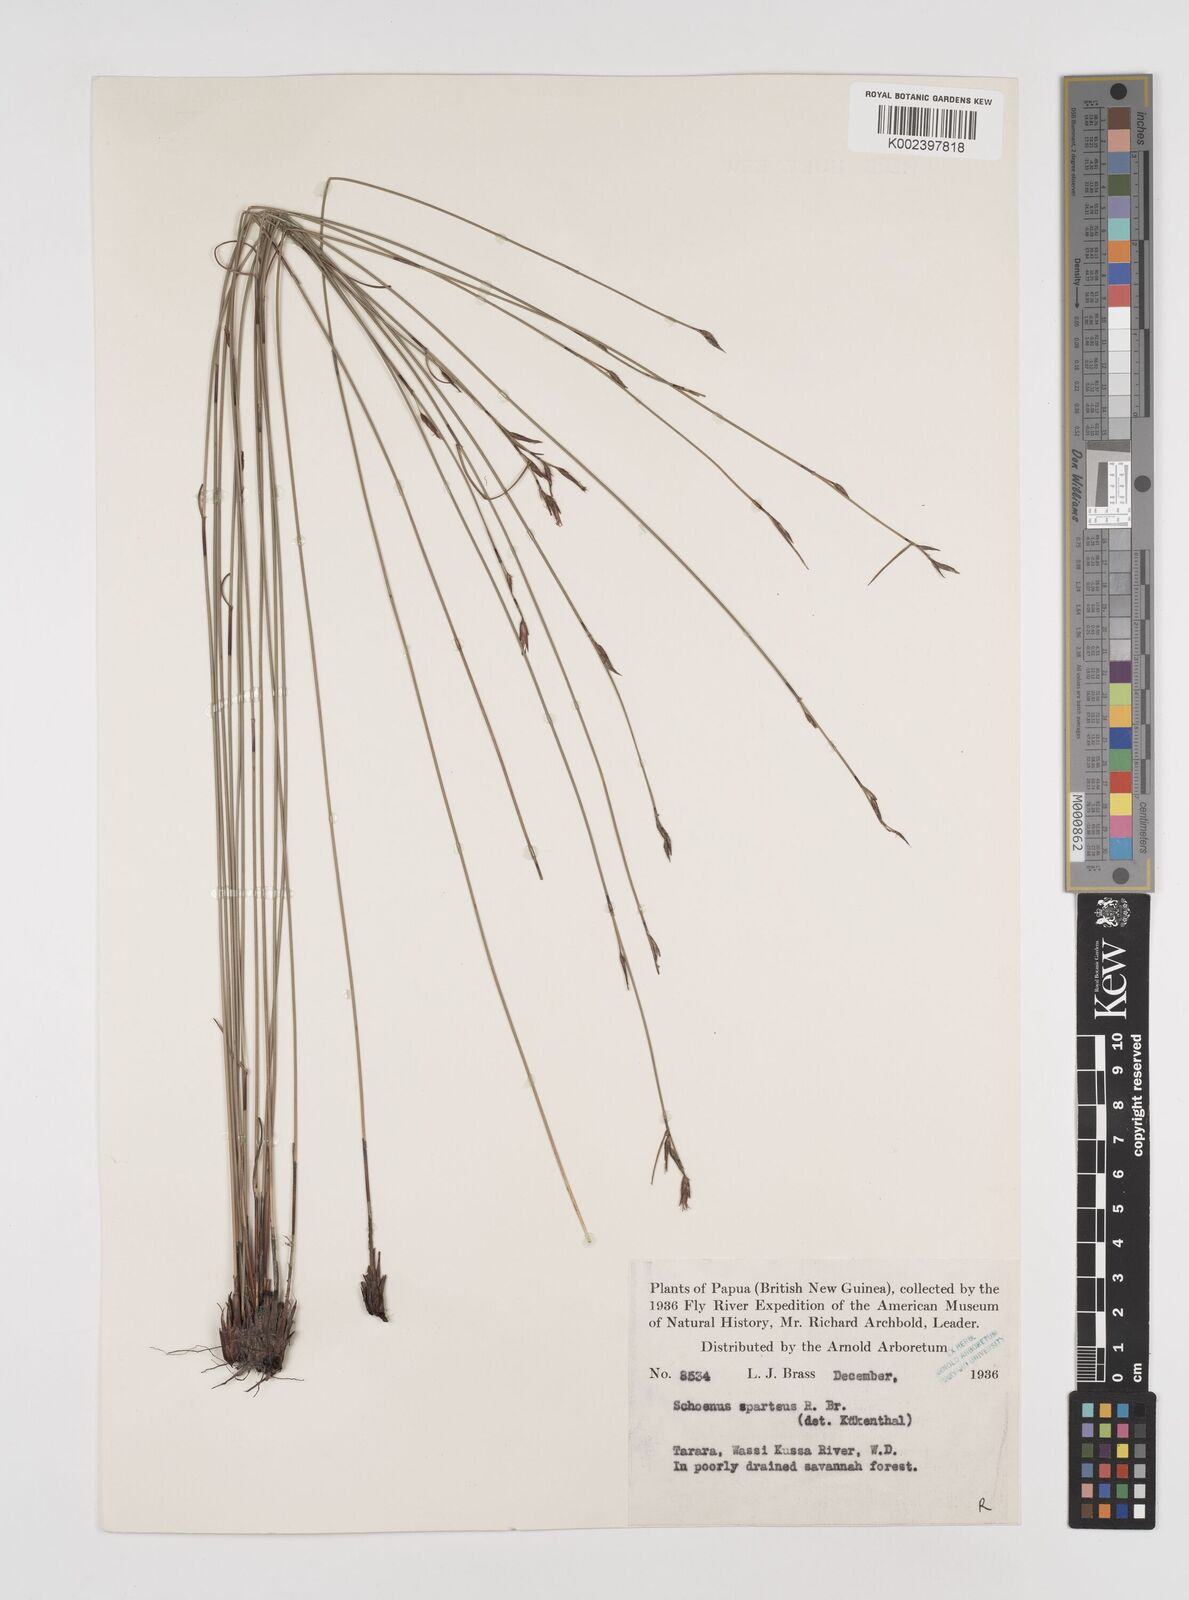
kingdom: Plantae
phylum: Tracheophyta
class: Liliopsida
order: Poales
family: Cyperaceae
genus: Schoenus
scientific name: Schoenus sparteus
